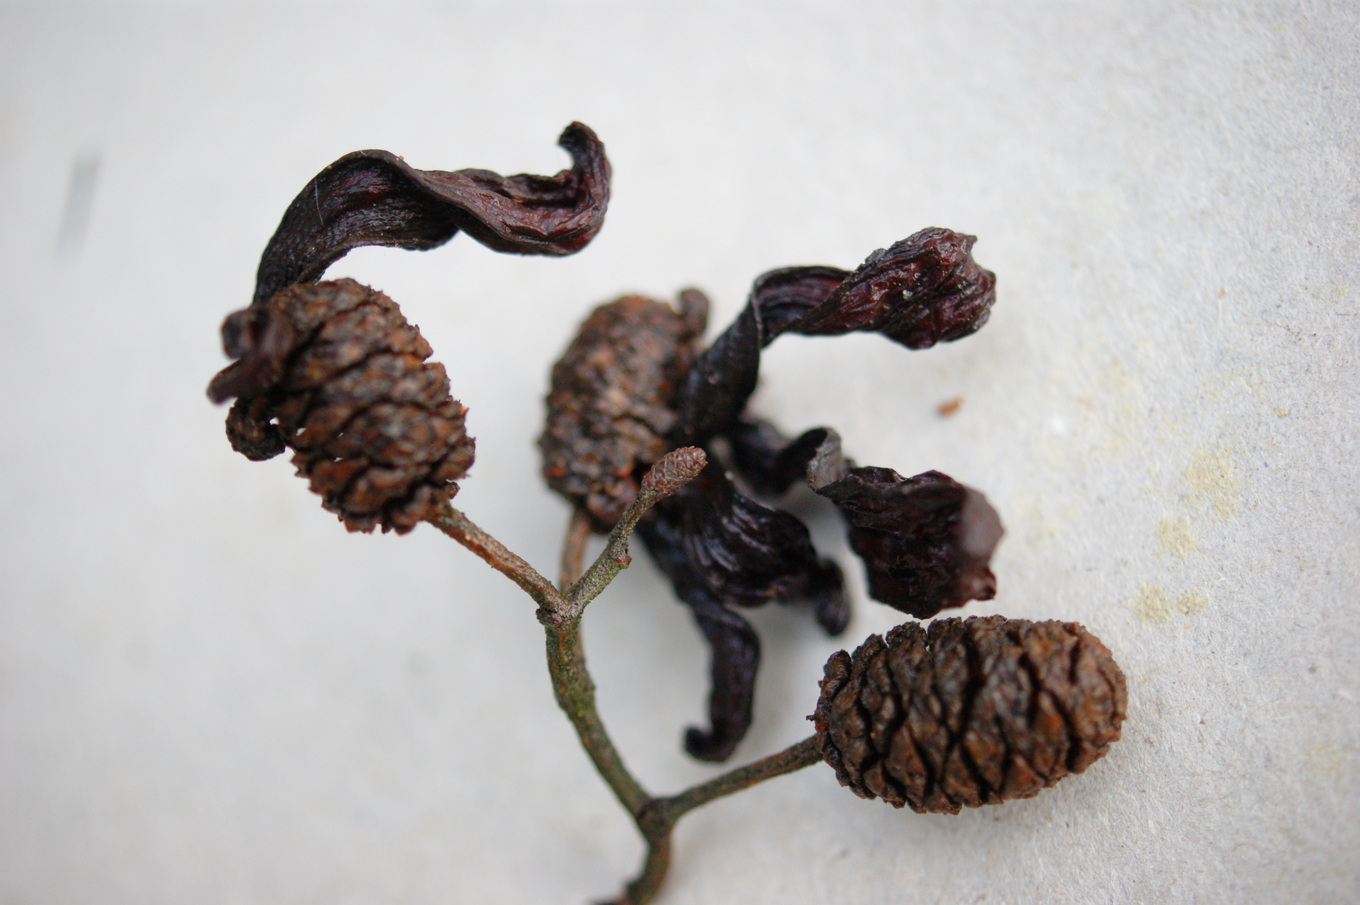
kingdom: Fungi
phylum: Ascomycota
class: Taphrinomycetes
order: Taphrinales
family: Taphrinaceae
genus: Taphrina
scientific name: Taphrina alni
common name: Alder tongue
